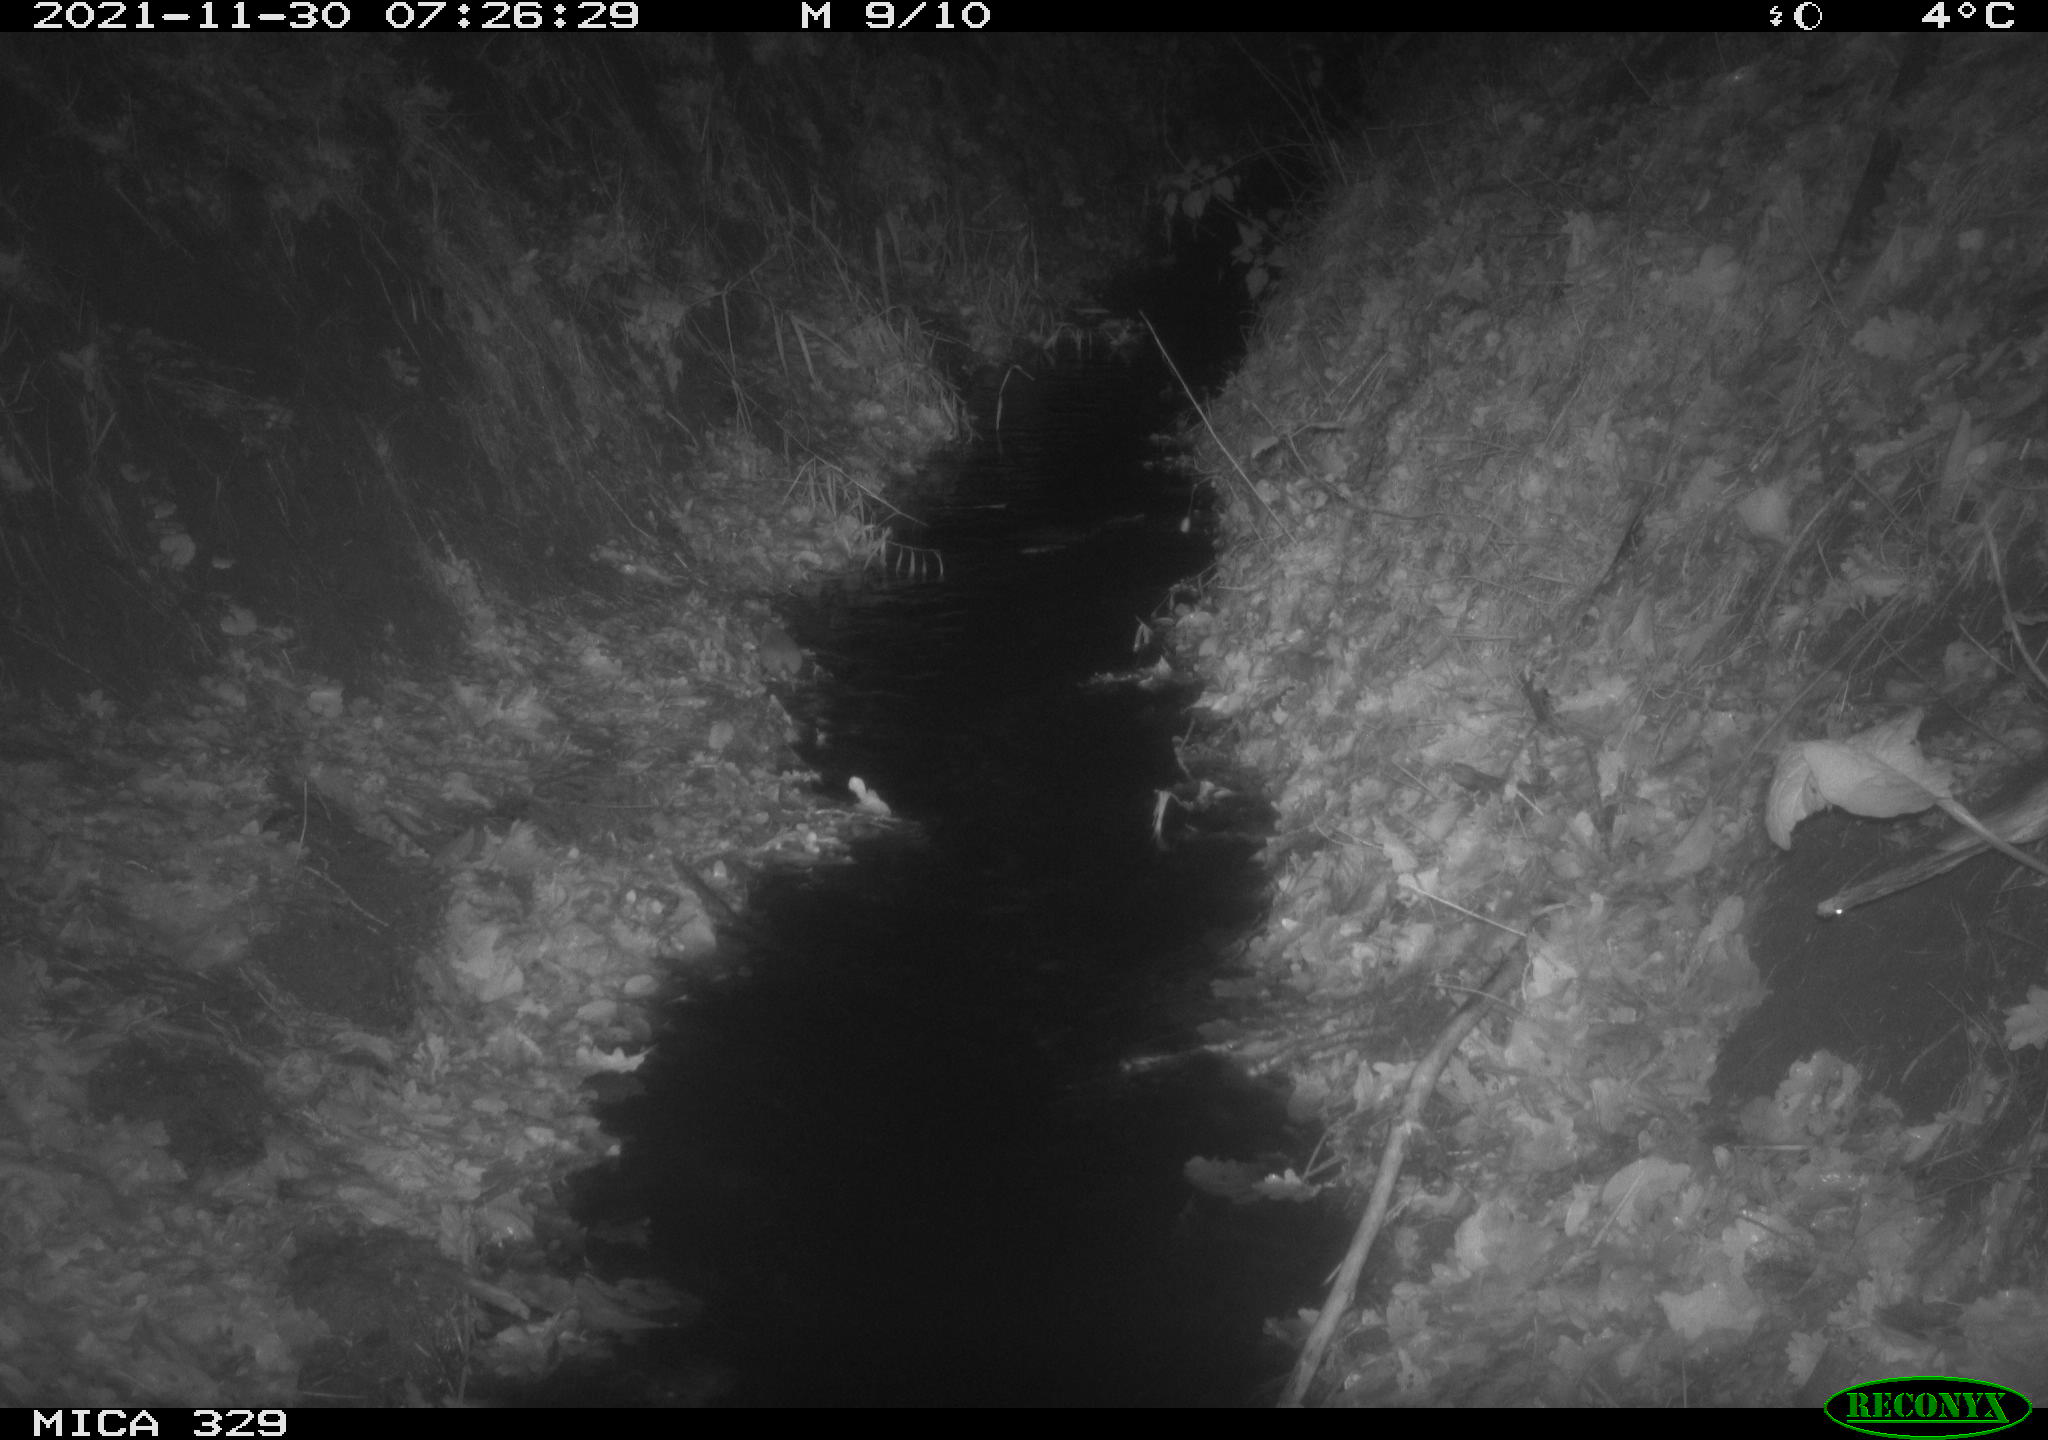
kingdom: Animalia
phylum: Chordata
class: Mammalia
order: Rodentia
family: Muridae
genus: Rattus
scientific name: Rattus norvegicus
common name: Brown rat
